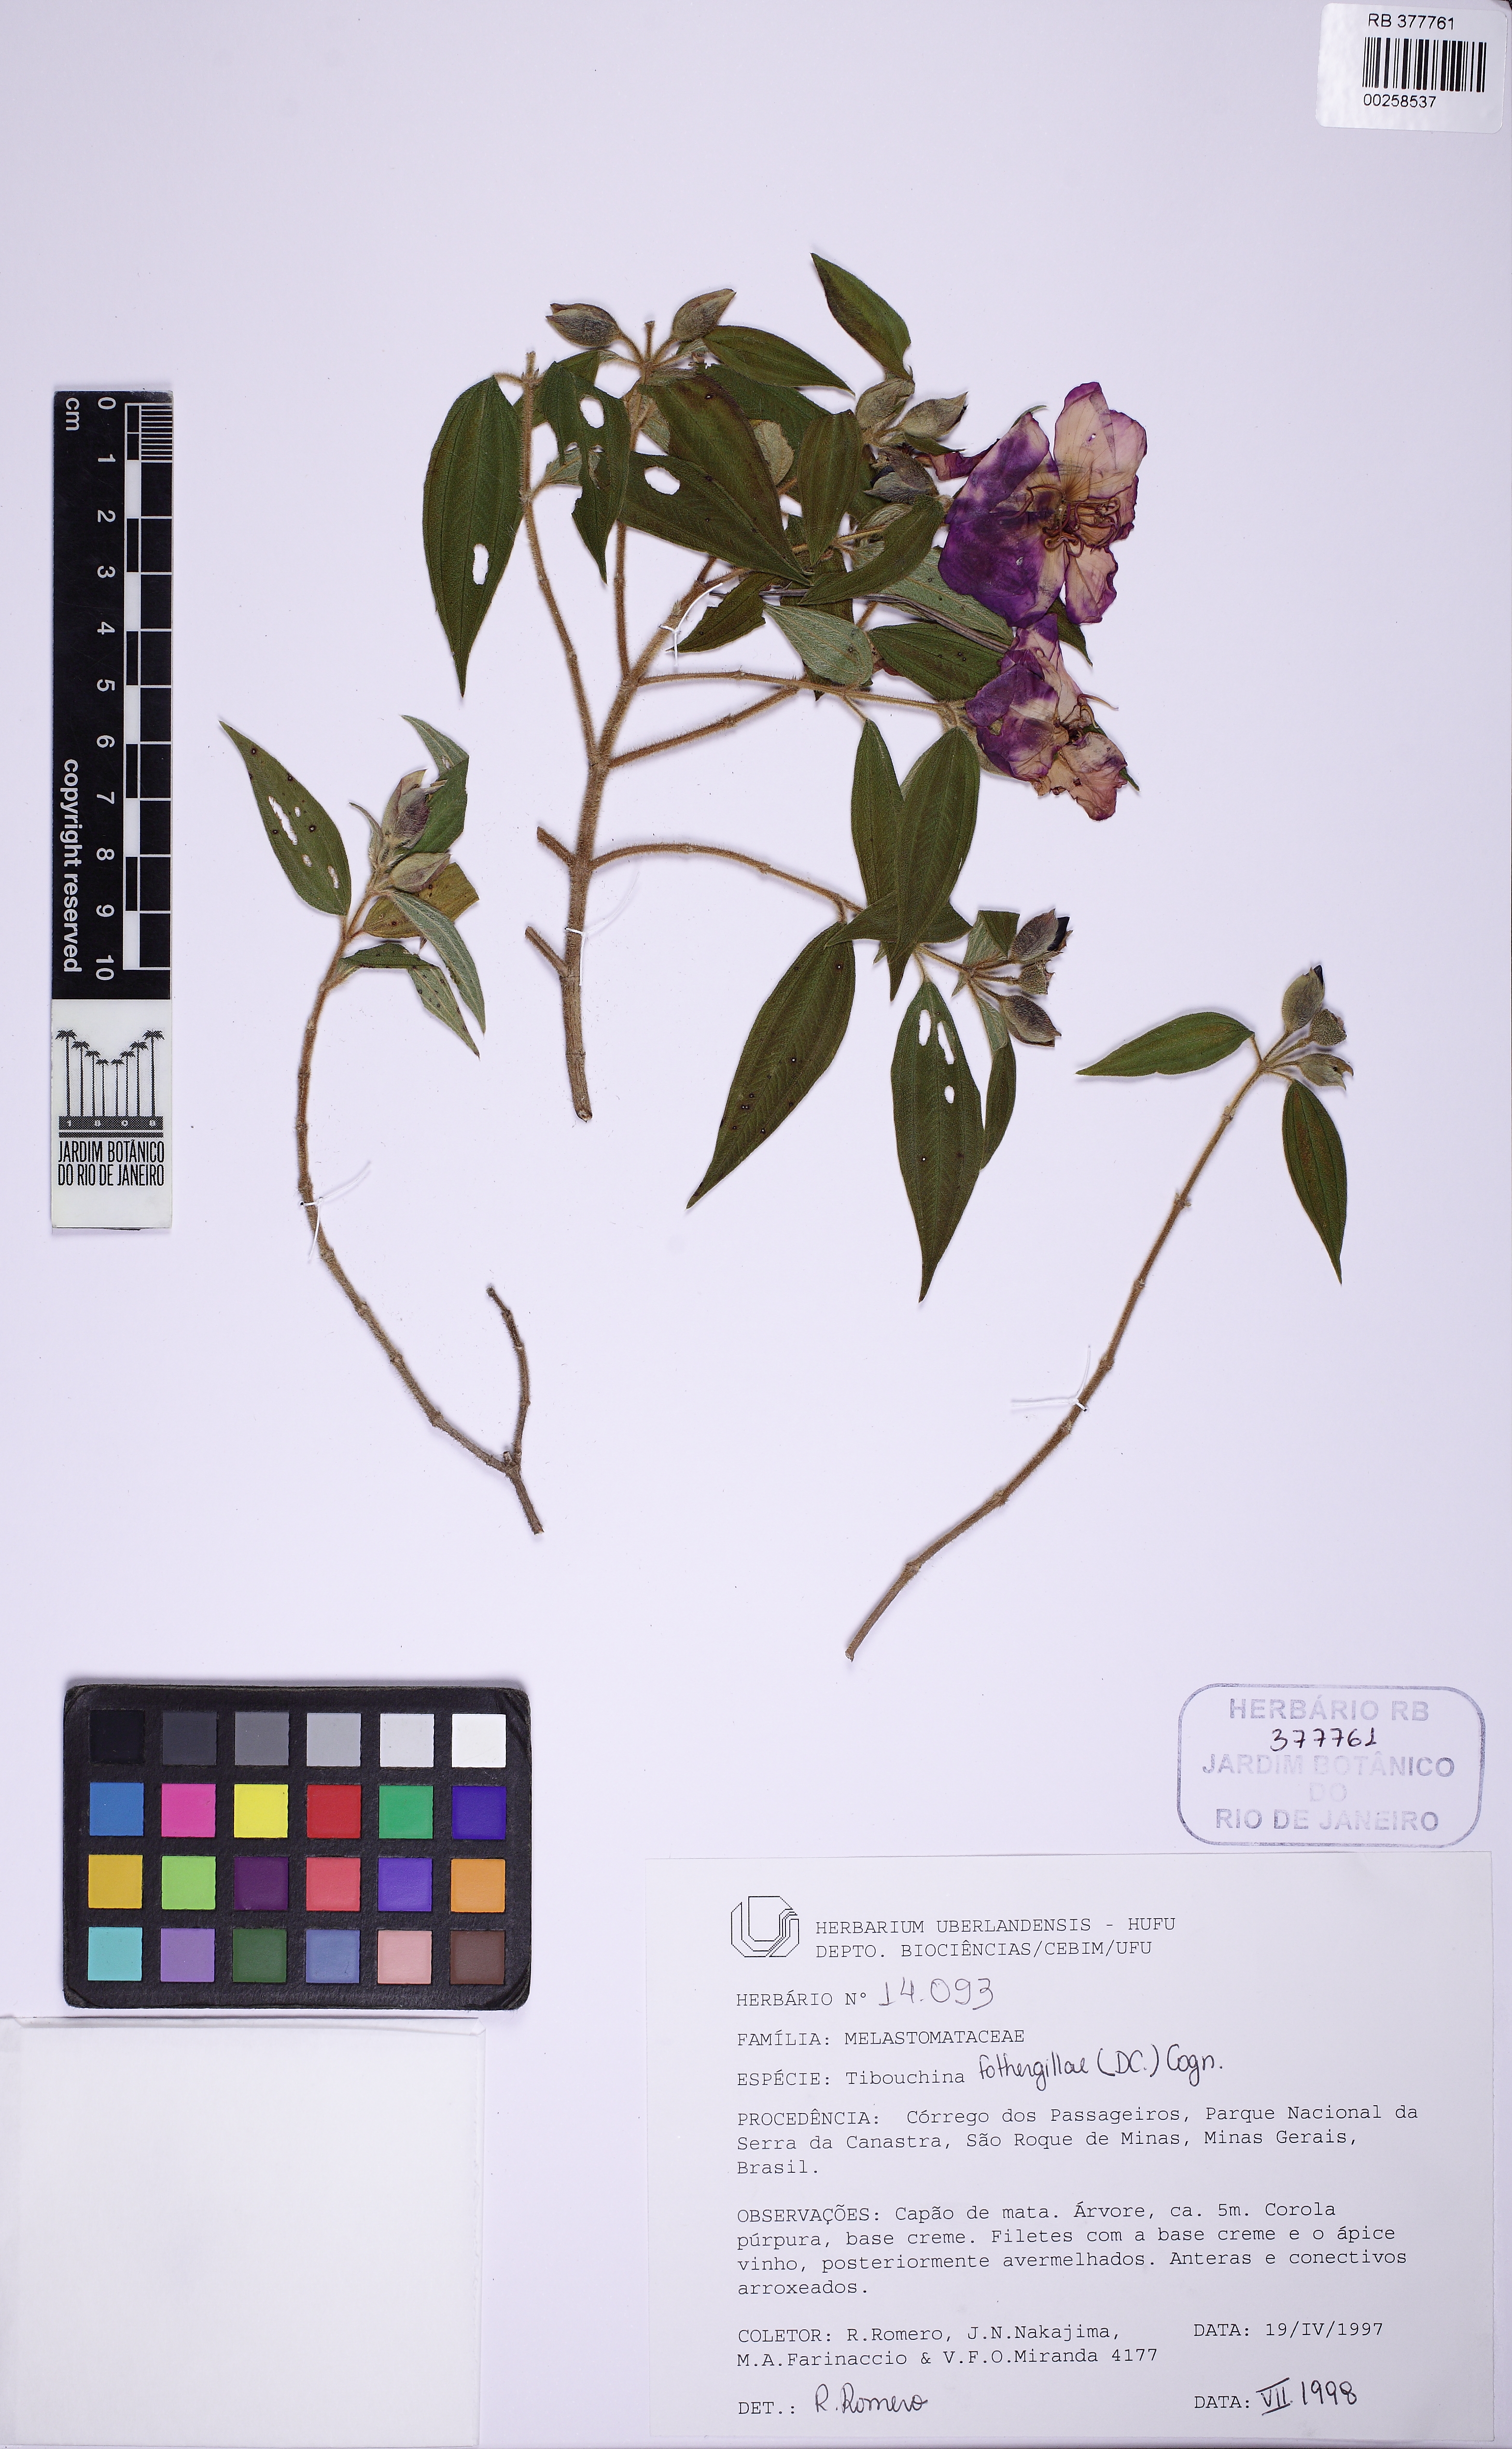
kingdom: Plantae
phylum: Tracheophyta
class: Magnoliopsida
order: Myrtales
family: Melastomataceae
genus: Pleroma
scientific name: Pleroma fothergillae
